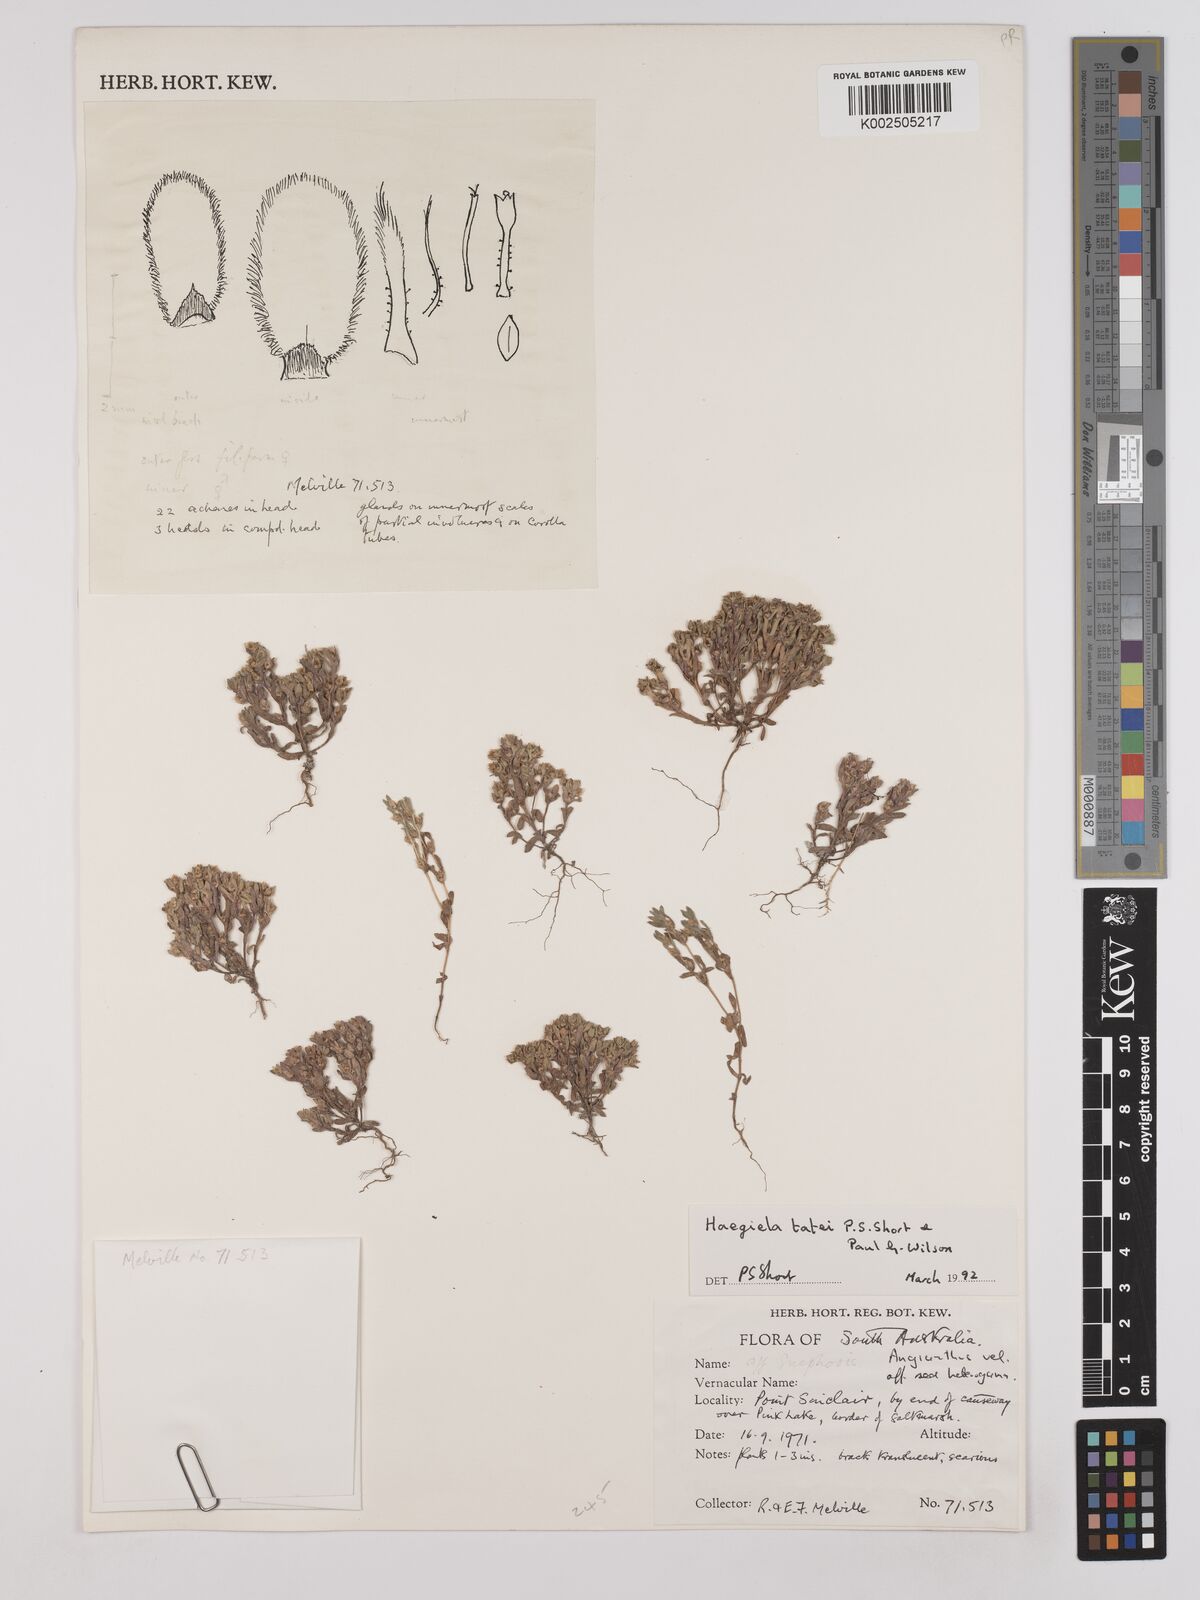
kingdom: Plantae
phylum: Tracheophyta
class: Magnoliopsida
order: Asterales
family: Asteraceae
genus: Haegiela
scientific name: Haegiela tatei
